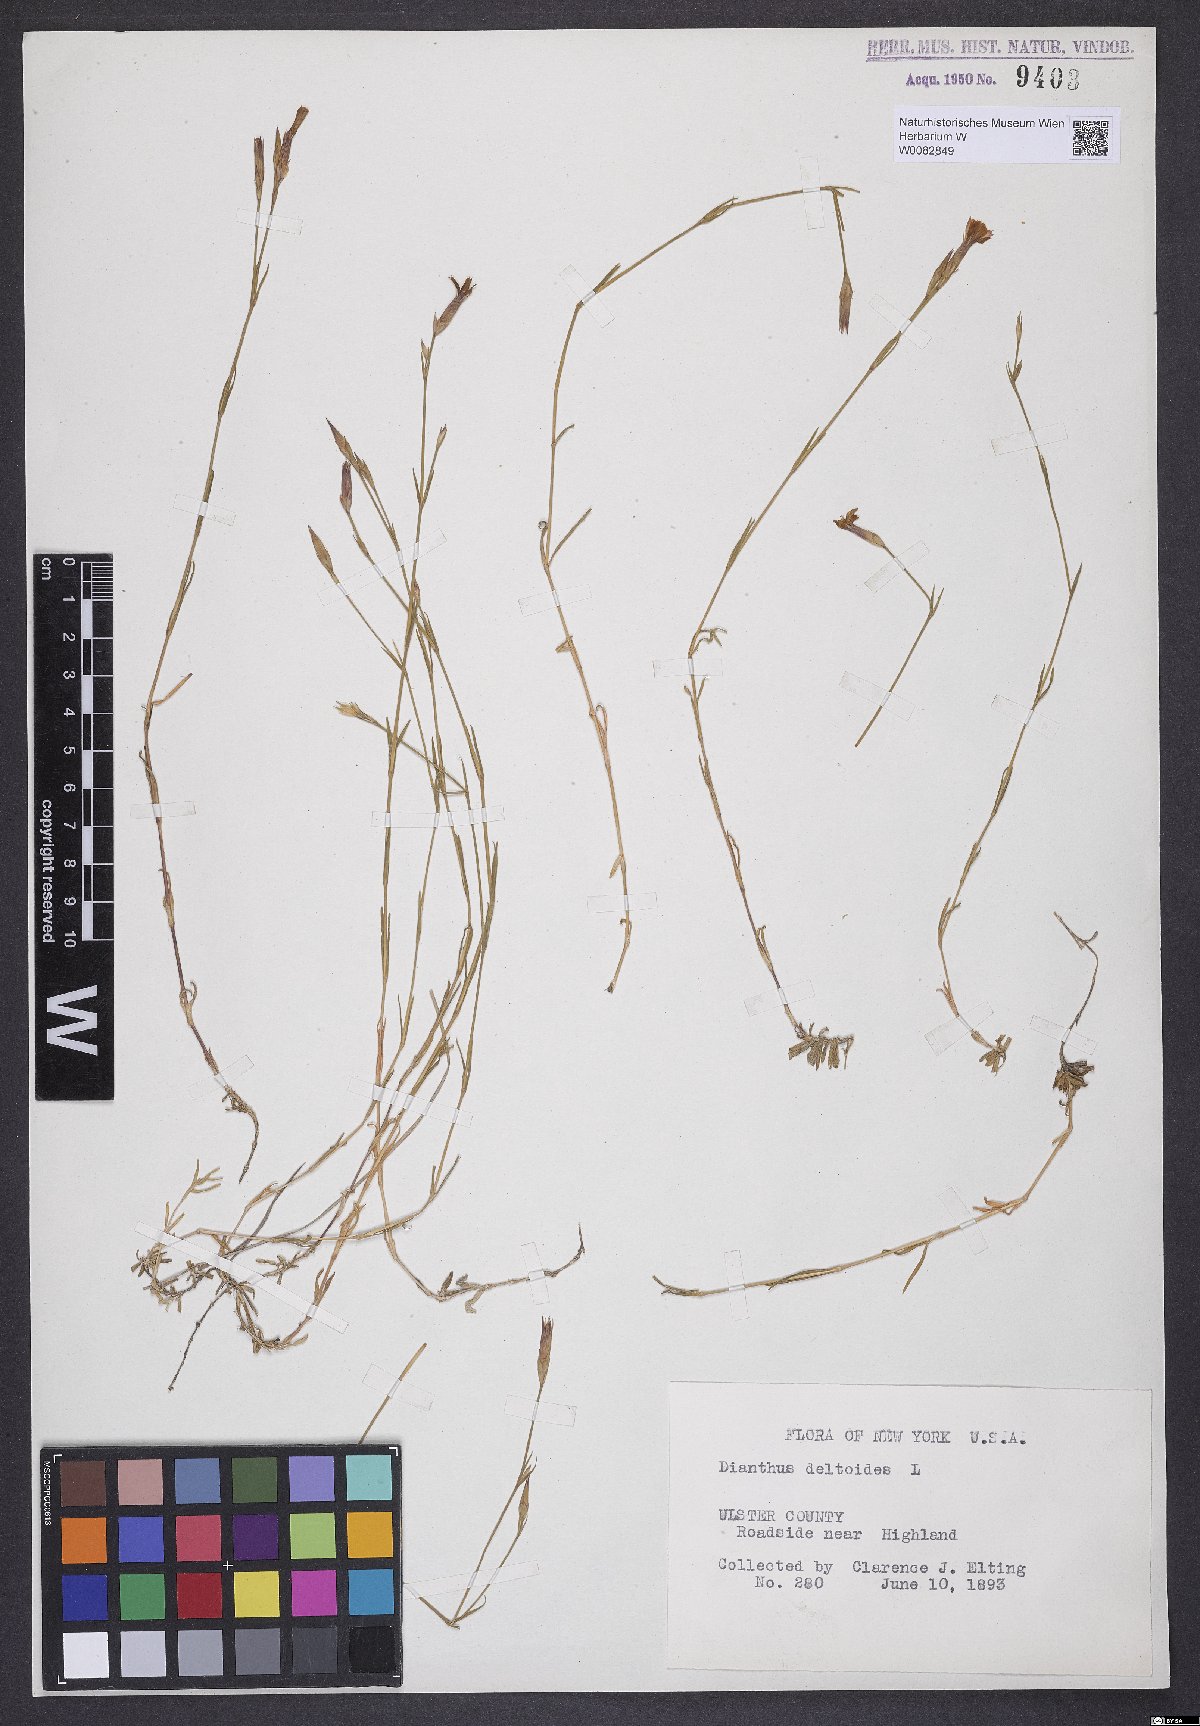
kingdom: Plantae
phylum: Tracheophyta
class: Magnoliopsida
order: Caryophyllales
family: Caryophyllaceae
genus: Dianthus
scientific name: Dianthus deltoides
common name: Maiden pink
